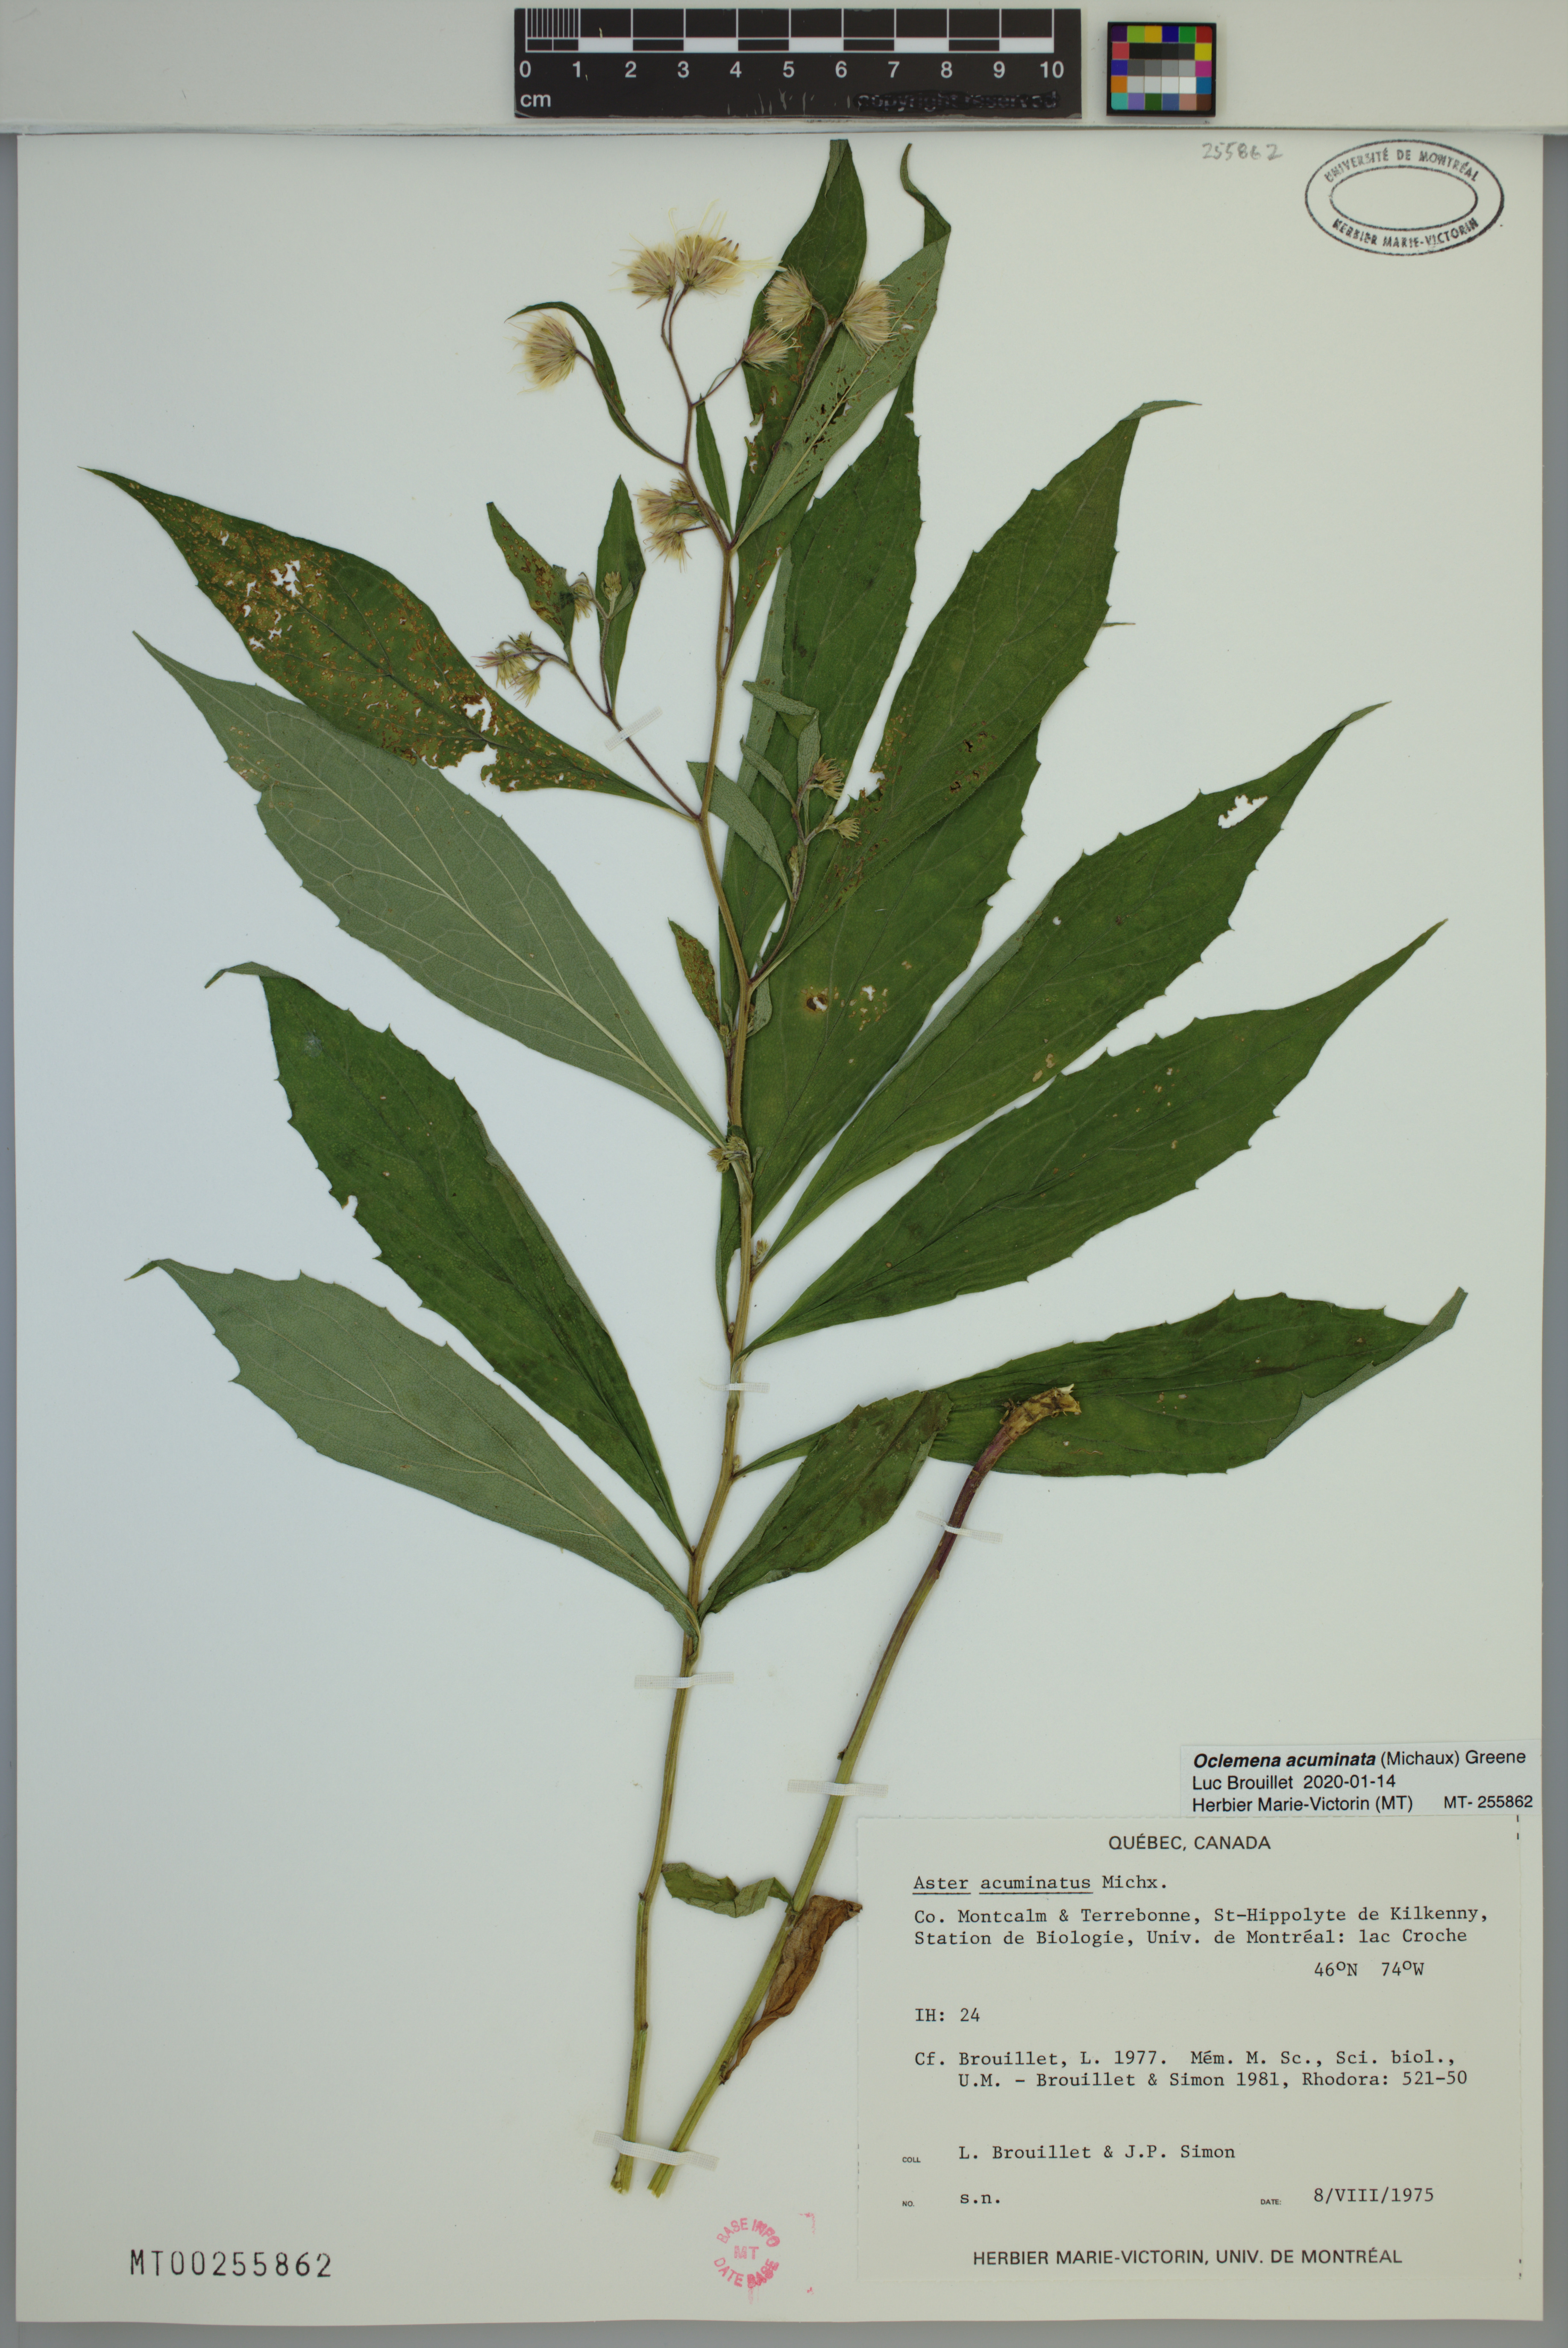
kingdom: Plantae
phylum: Tracheophyta
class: Magnoliopsida
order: Asterales
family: Asteraceae
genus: Oclemena
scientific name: Oclemena acuminata
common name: Mountain aster
